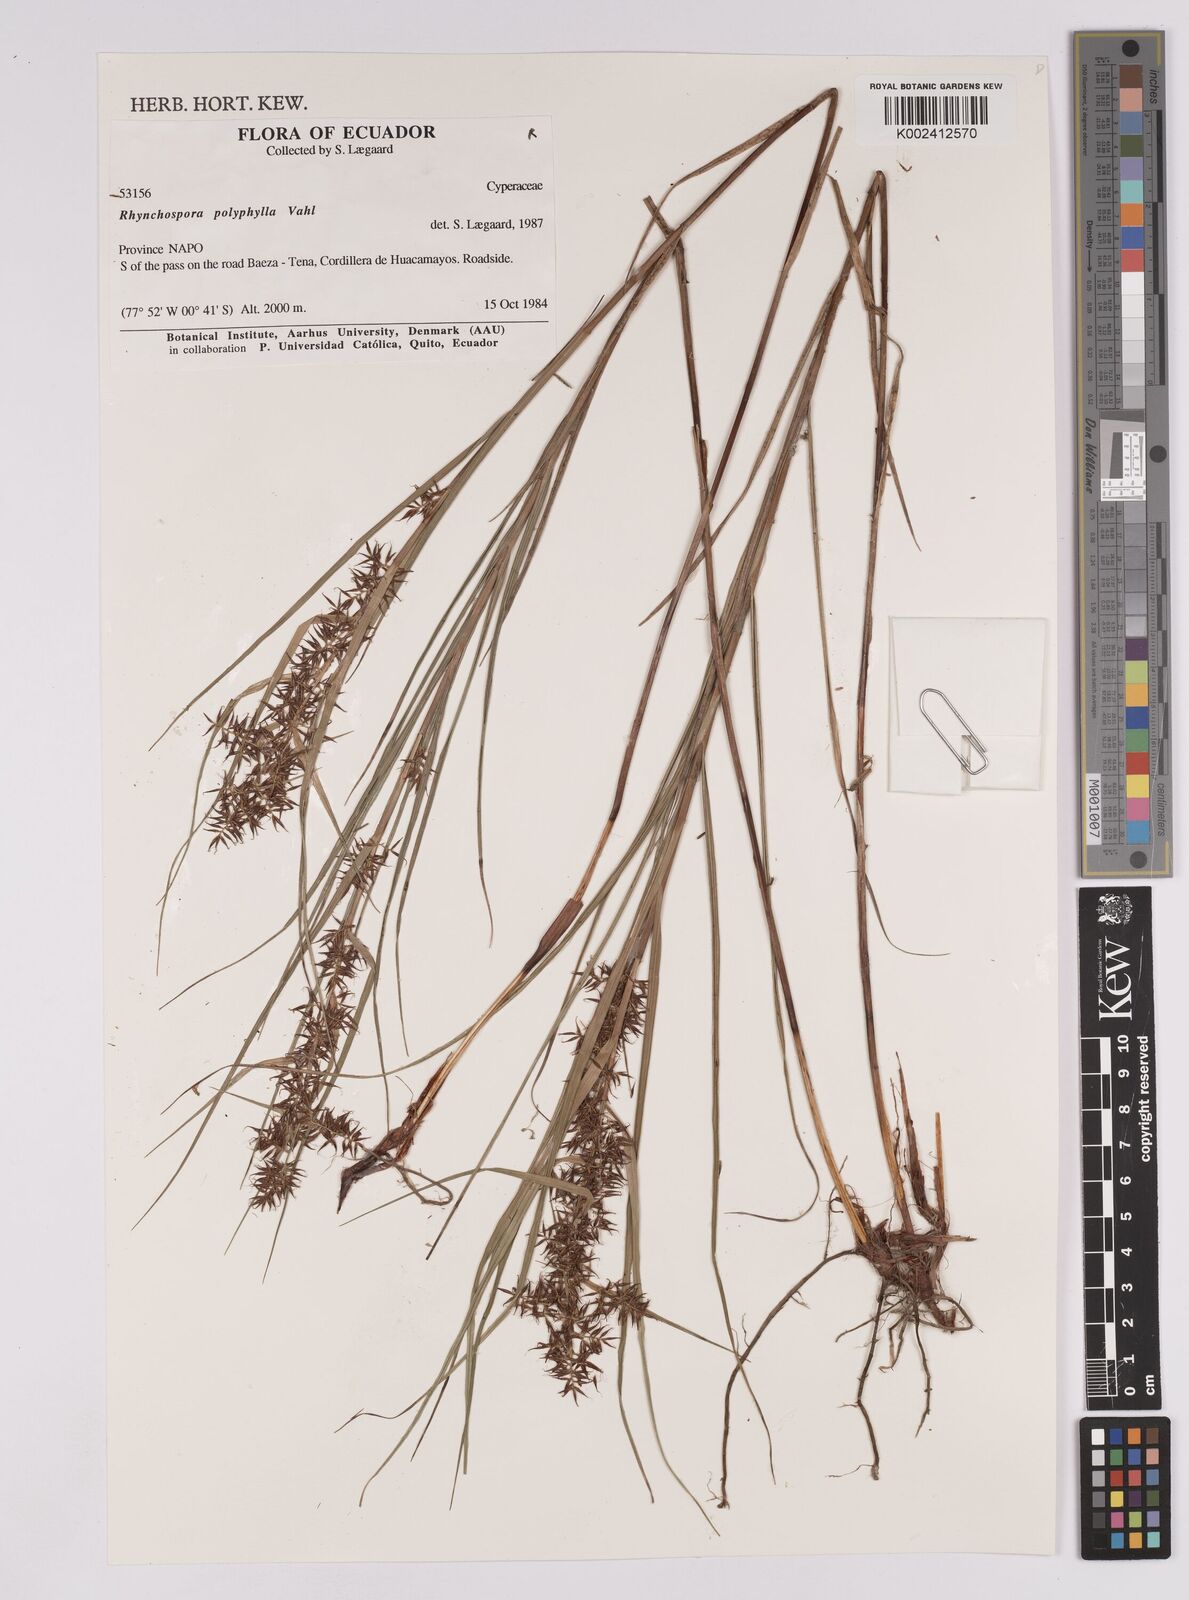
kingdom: Plantae
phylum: Tracheophyta
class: Liliopsida
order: Poales
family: Cyperaceae
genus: Rhynchospora
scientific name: Rhynchospora polyphylla
